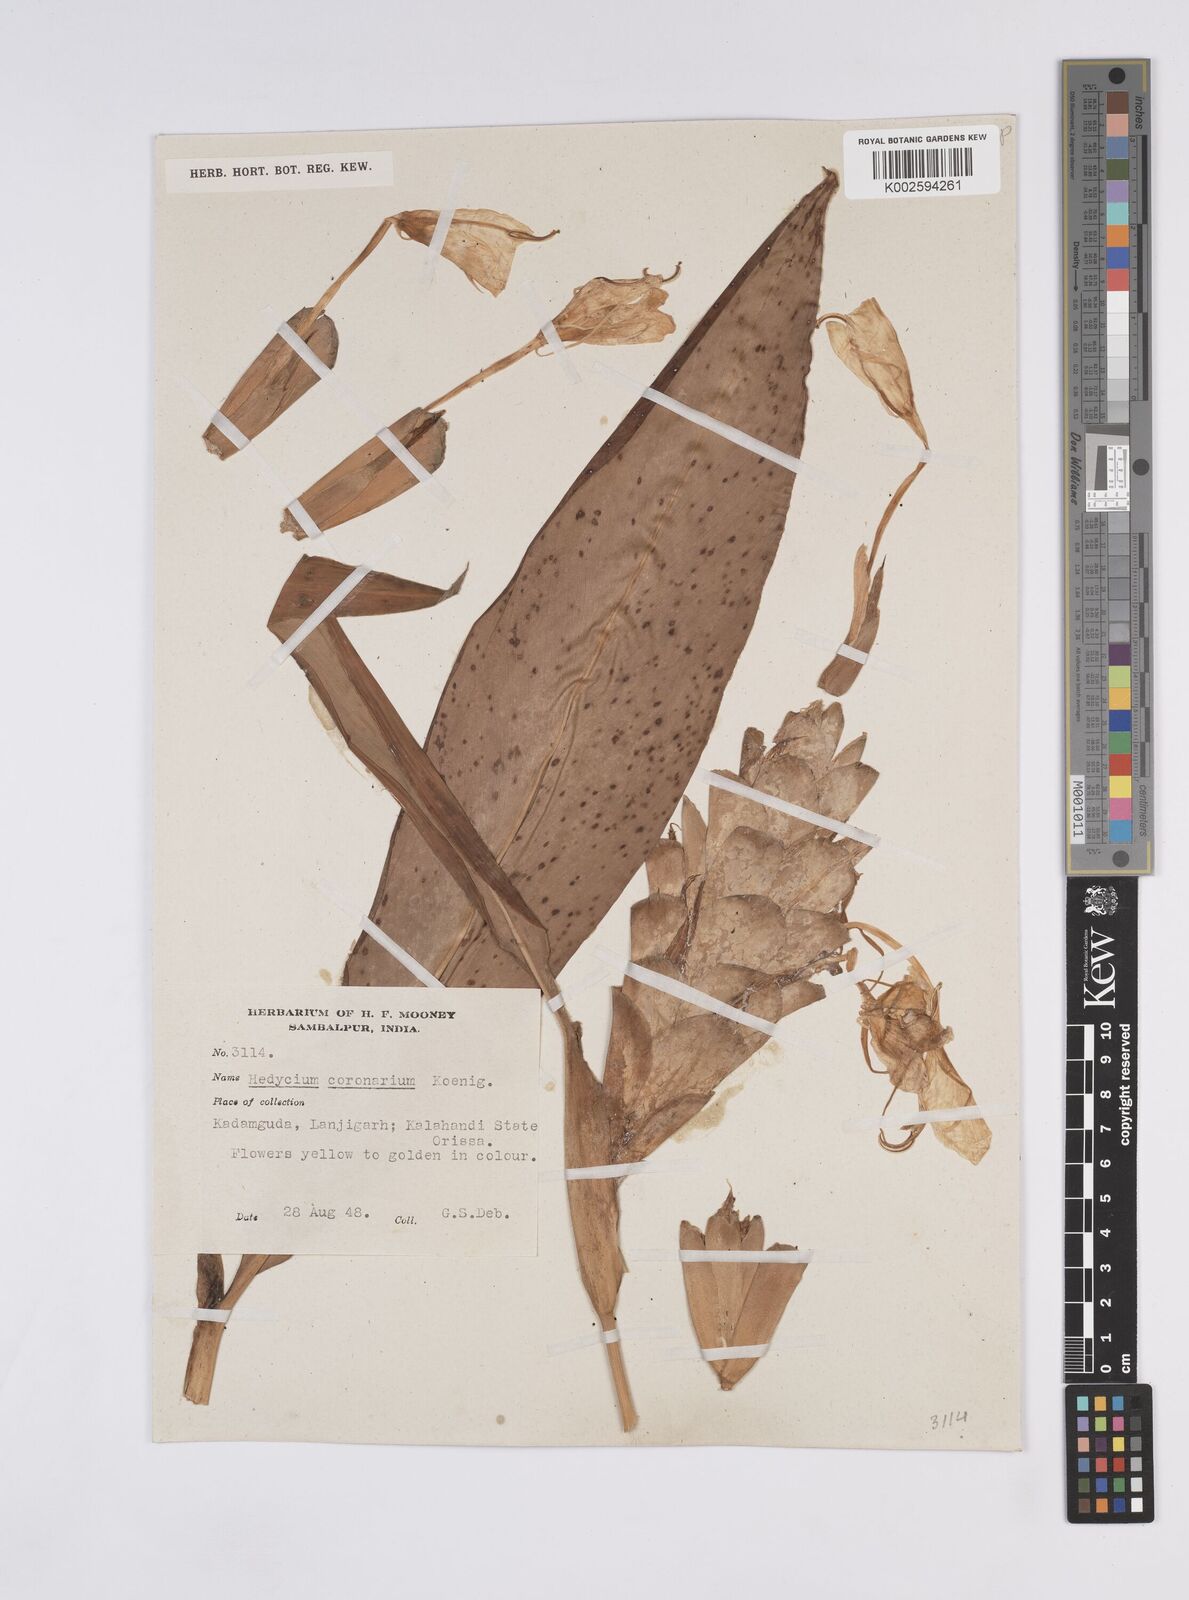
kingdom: Plantae
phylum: Tracheophyta
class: Liliopsida
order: Zingiberales
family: Zingiberaceae
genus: Hedychium
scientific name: Hedychium coronarium
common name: White garland-lily
